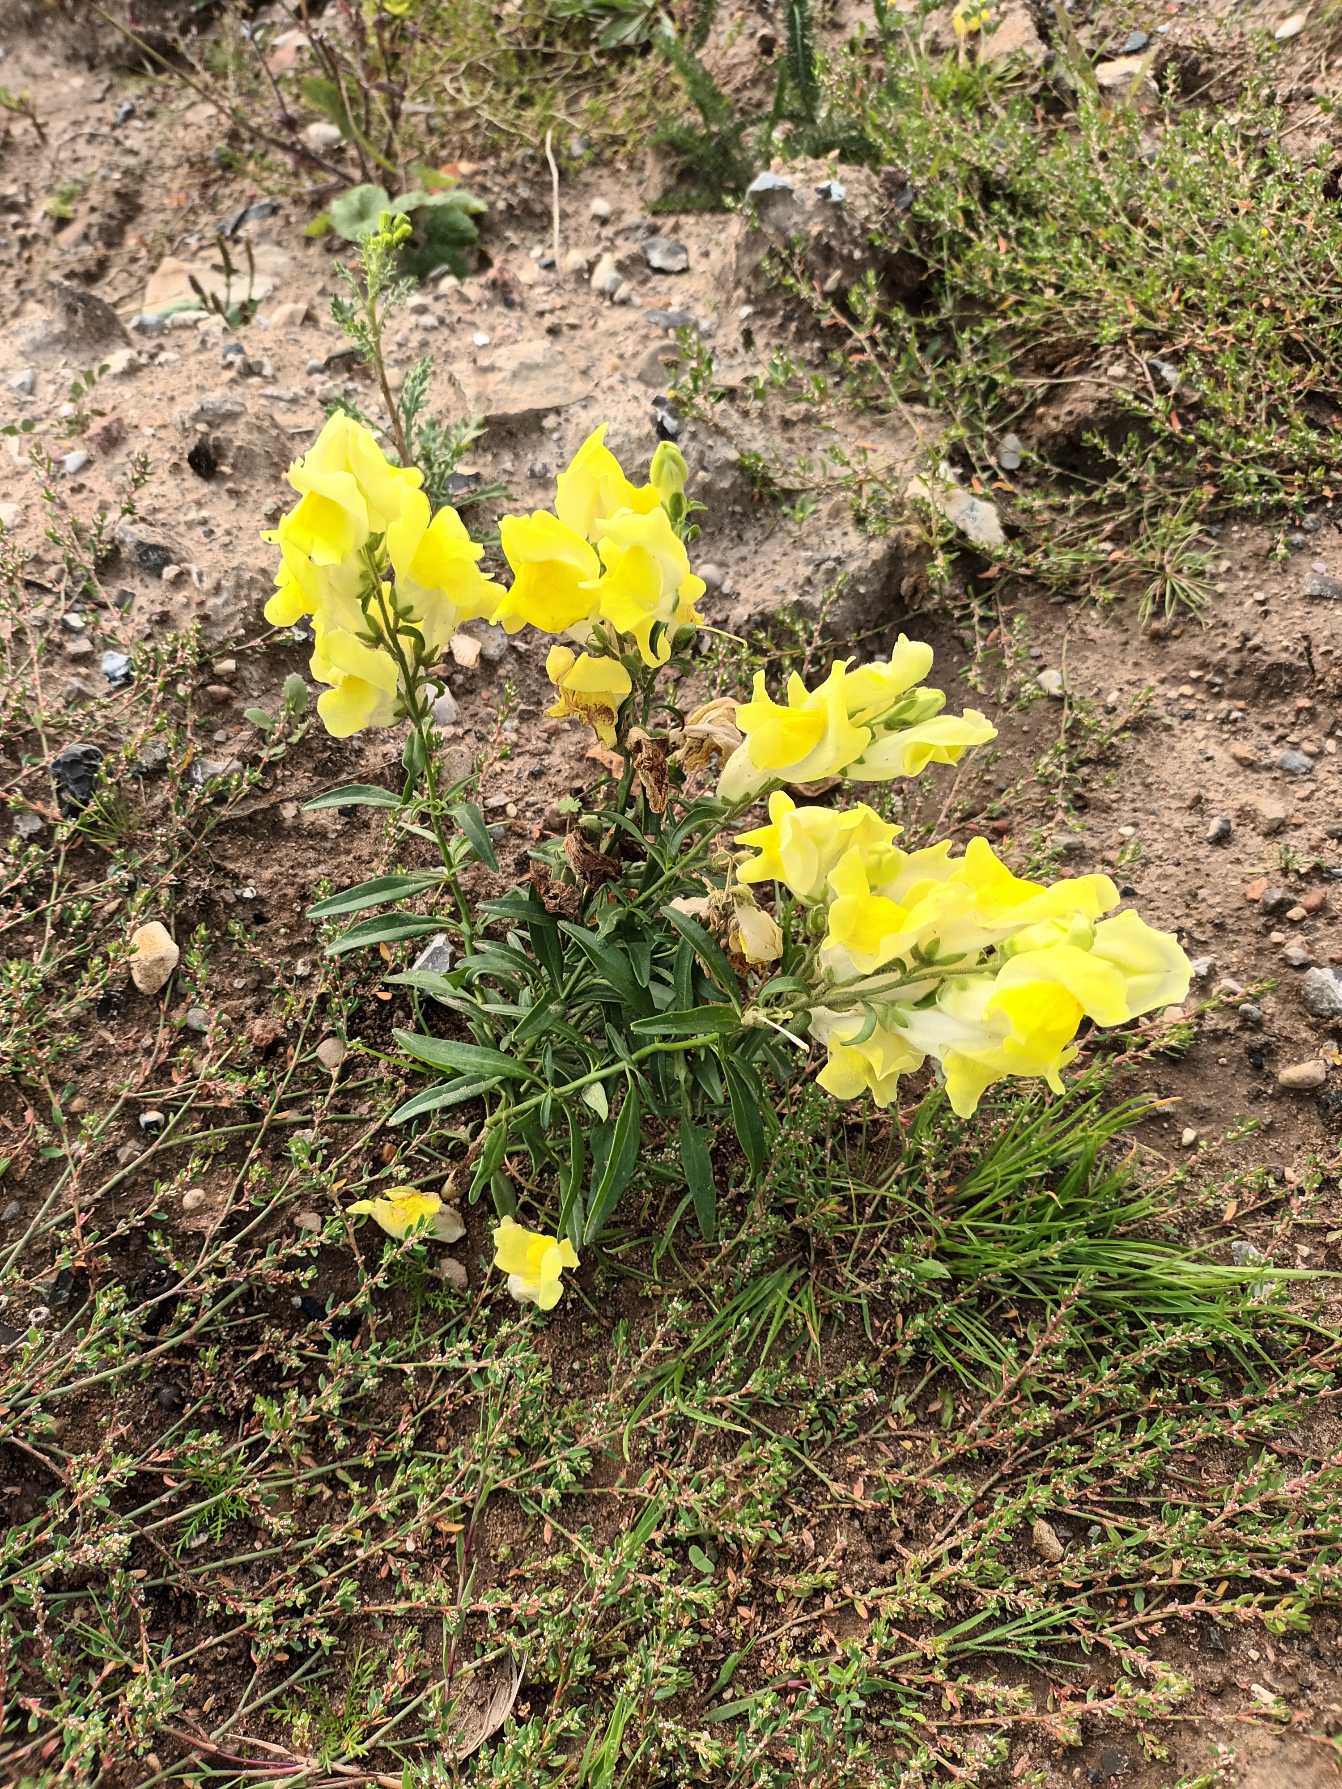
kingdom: Plantae
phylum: Tracheophyta
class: Magnoliopsida
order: Lamiales
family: Plantaginaceae
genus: Antirrhinum
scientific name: Antirrhinum majus
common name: Have-løvemund
